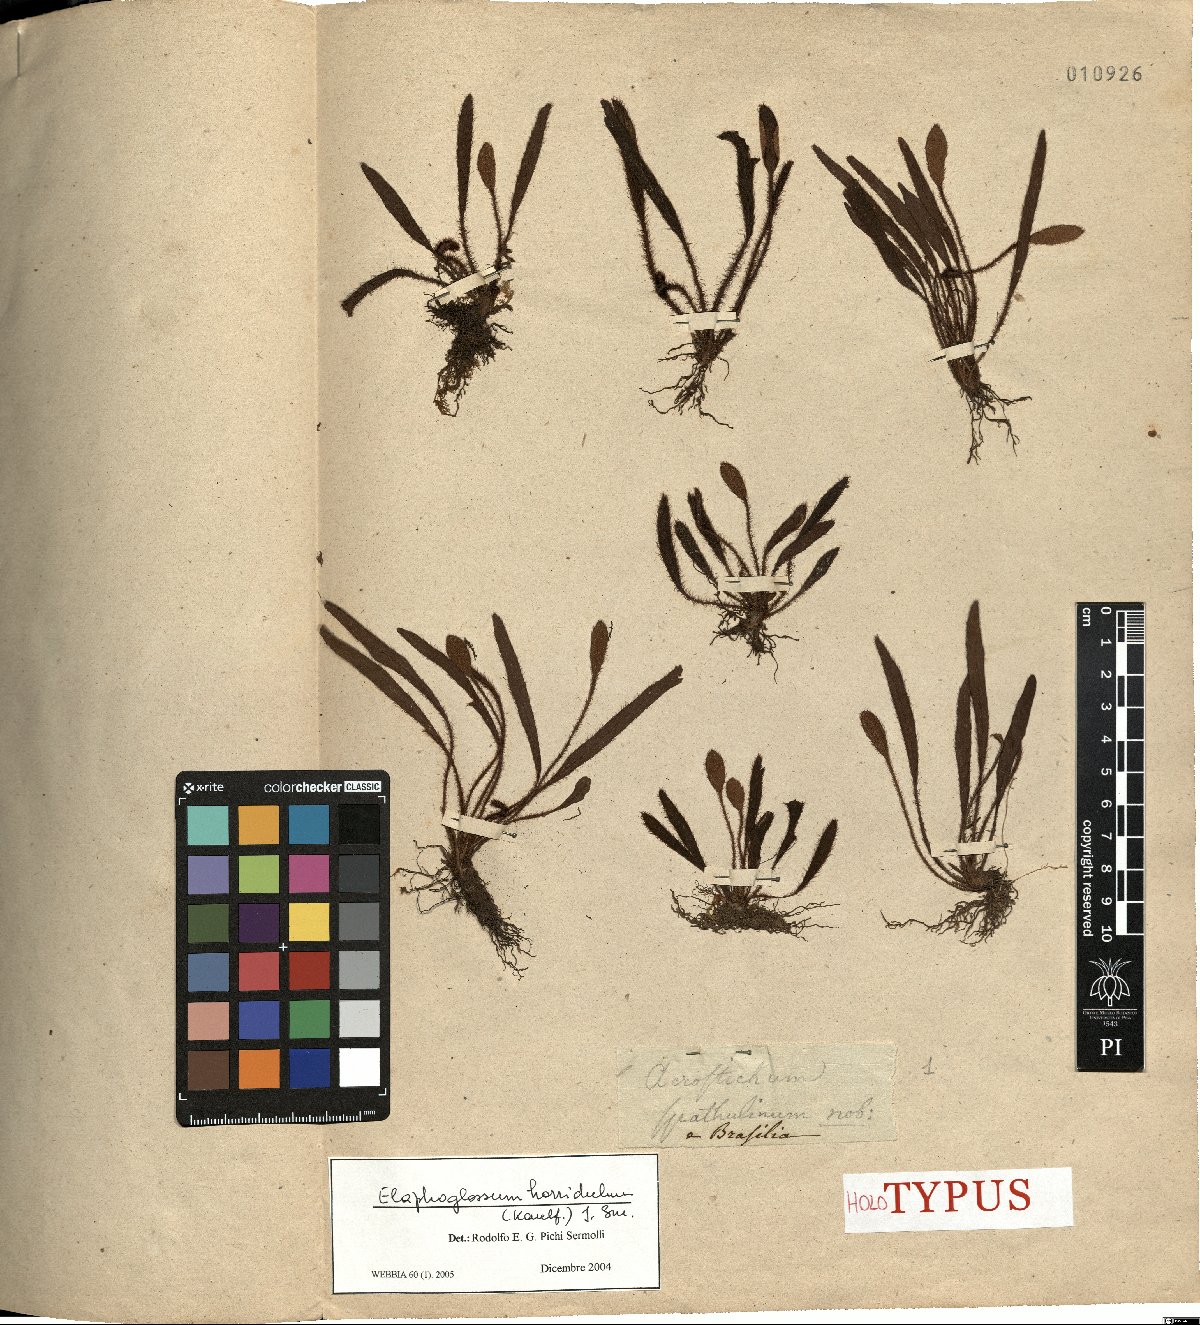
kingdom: Plantae
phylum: Tracheophyta
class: Polypodiopsida
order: Polypodiales
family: Dryopteridaceae
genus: Elaphoglossum
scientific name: Elaphoglossum horridulum
